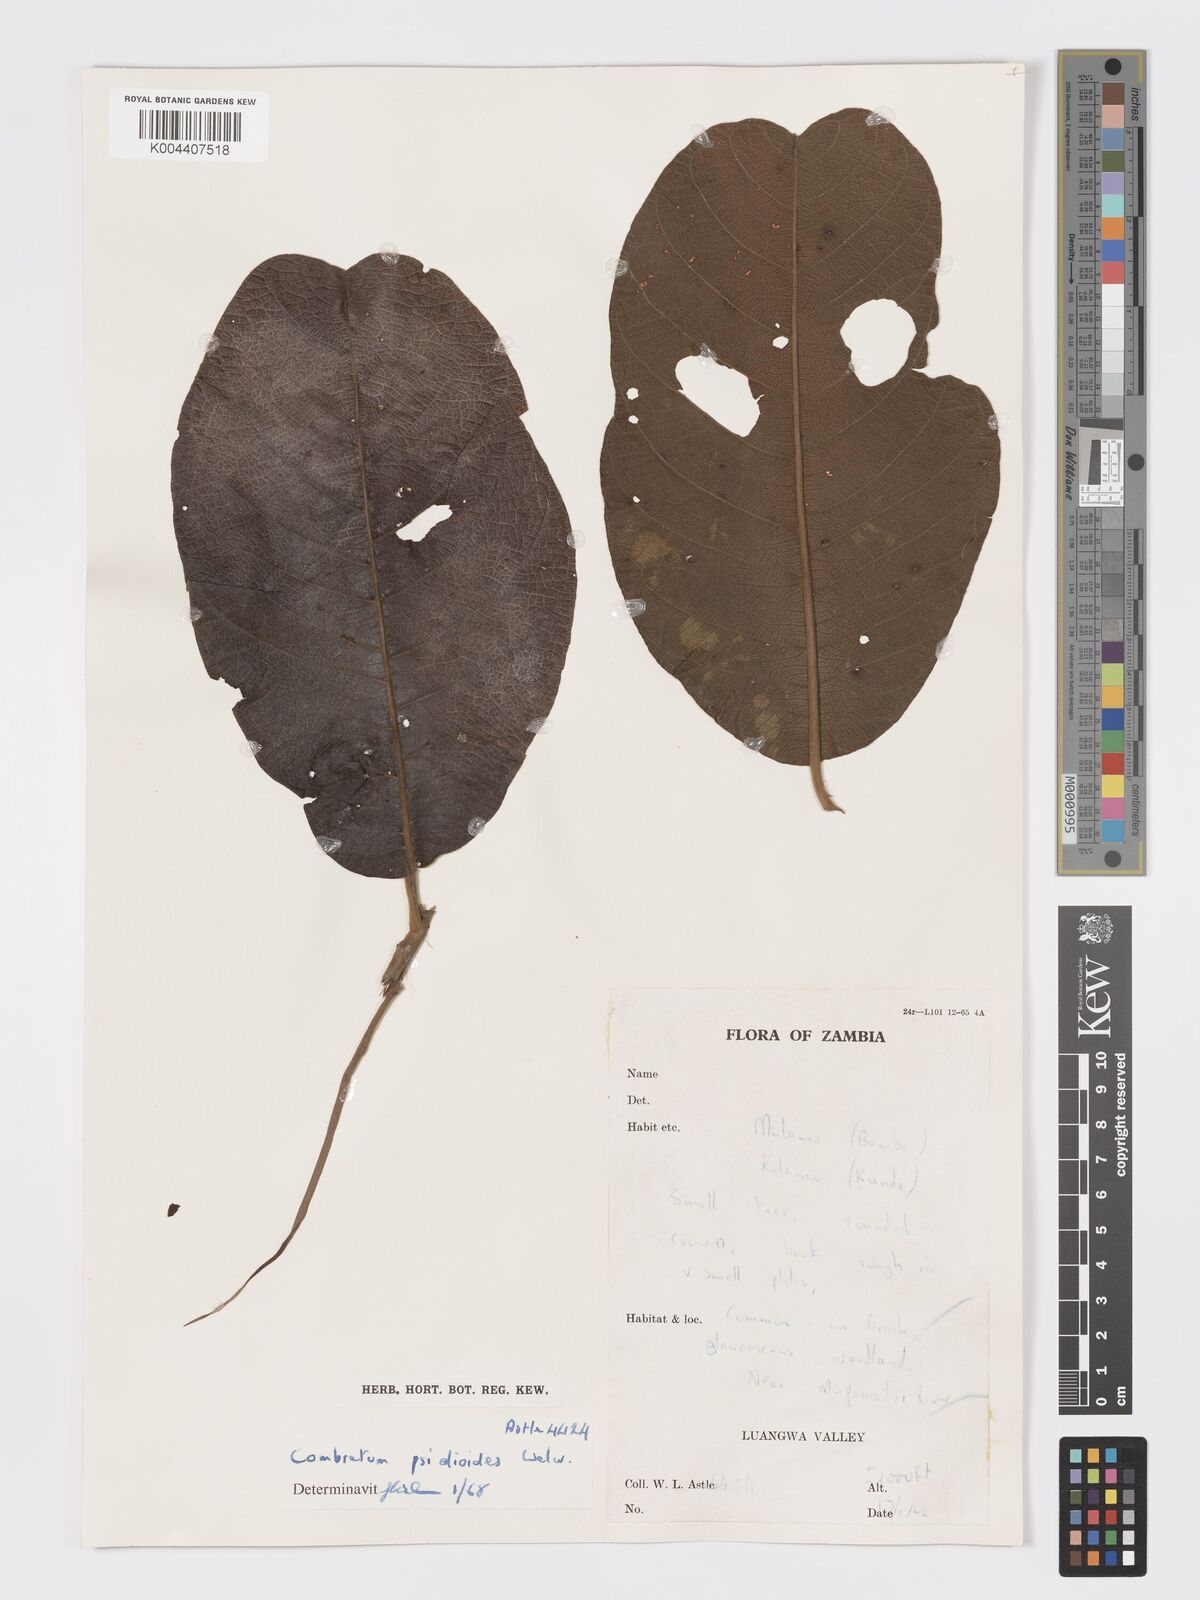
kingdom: Plantae
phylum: Tracheophyta
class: Magnoliopsida
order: Myrtales
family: Combretaceae
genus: Combretum
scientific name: Combretum psidioides
